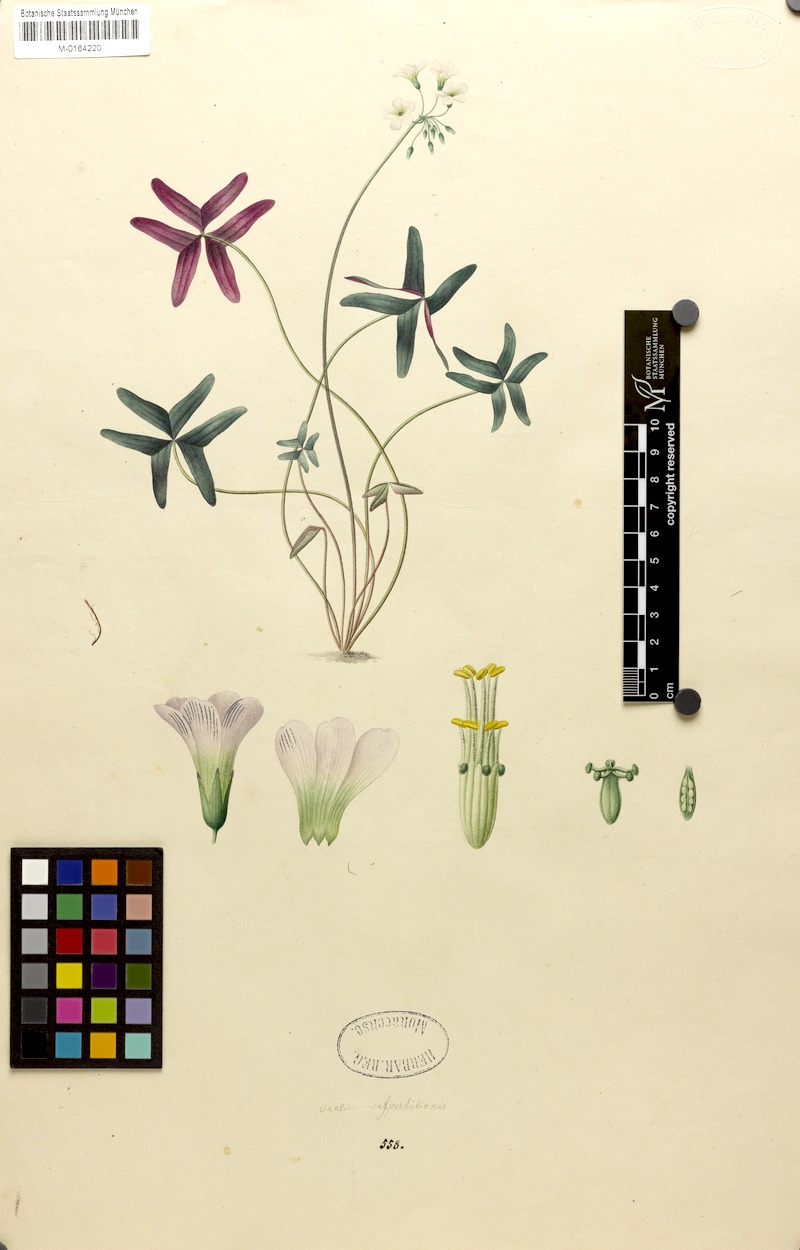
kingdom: Plantae
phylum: Tracheophyta
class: Magnoliopsida
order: Oxalidales
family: Oxalidaceae
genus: Oxalis
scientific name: Oxalis versicolor
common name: Peppermint rock oxalis
